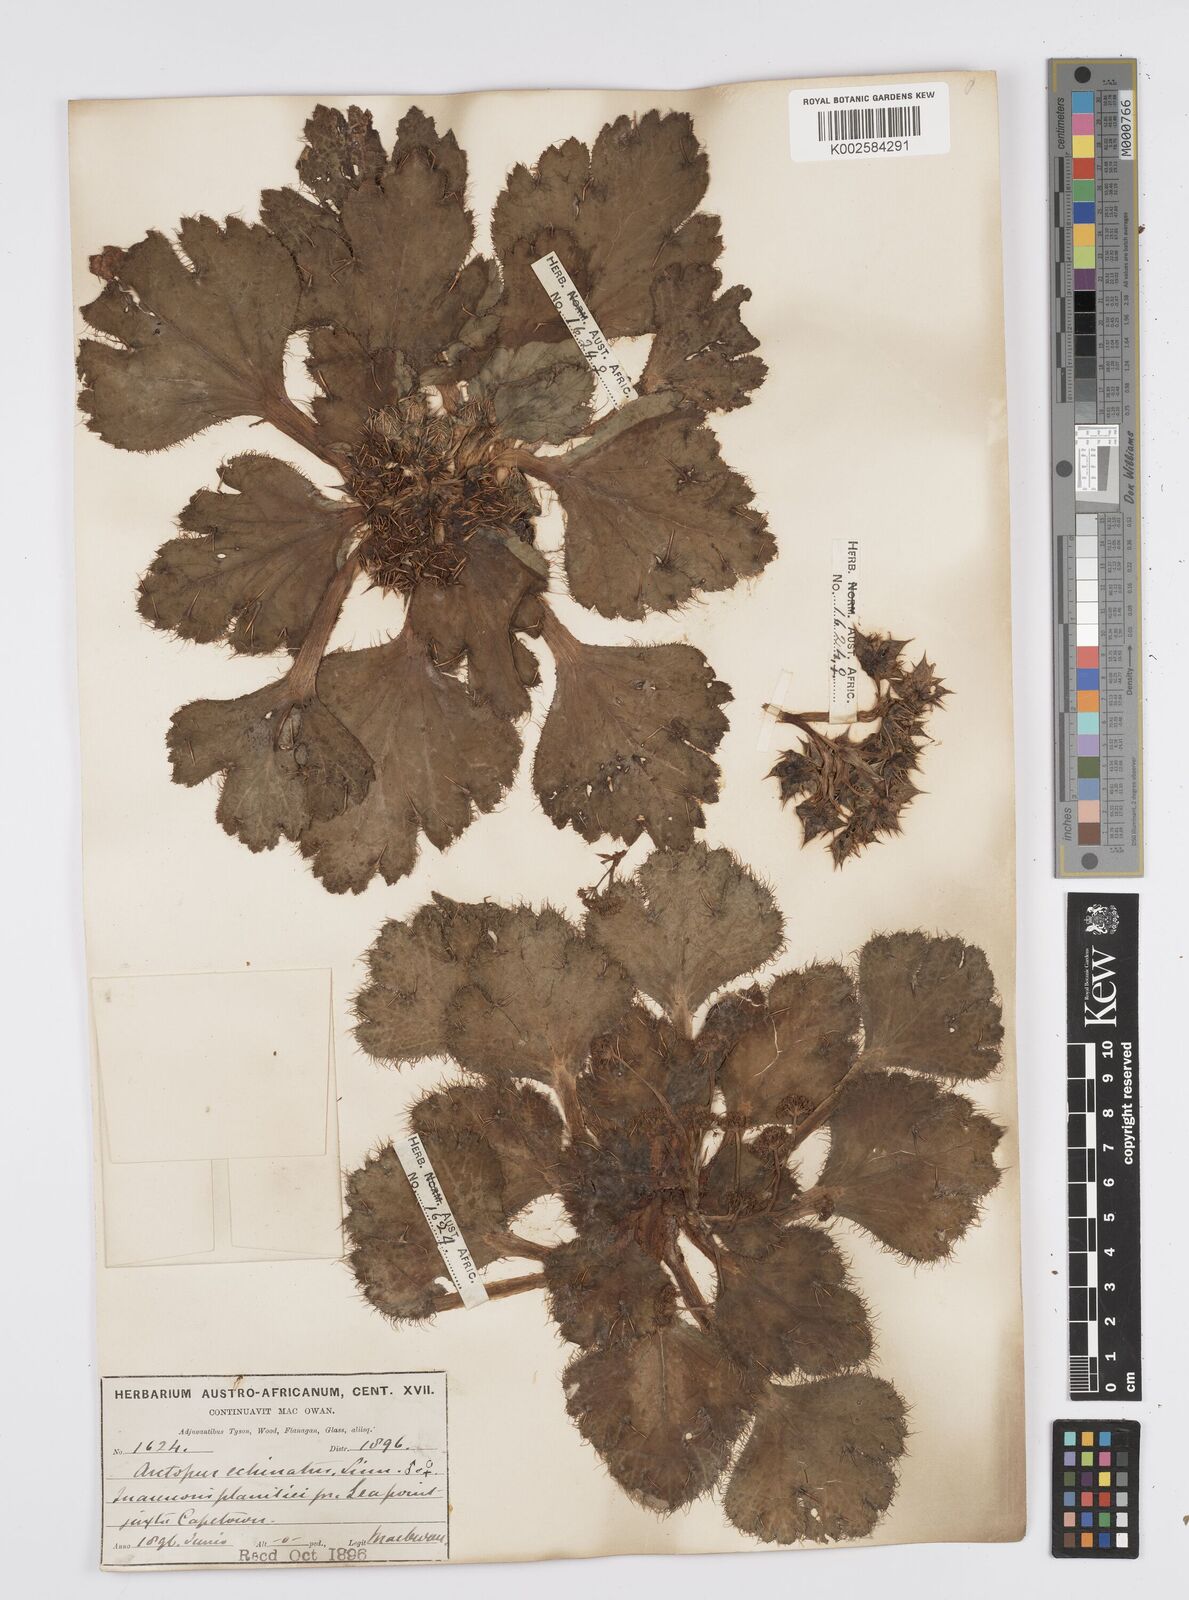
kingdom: Plantae
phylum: Tracheophyta
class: Magnoliopsida
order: Apiales
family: Apiaceae
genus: Arctopus
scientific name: Arctopus echinatus
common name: Platdoring
